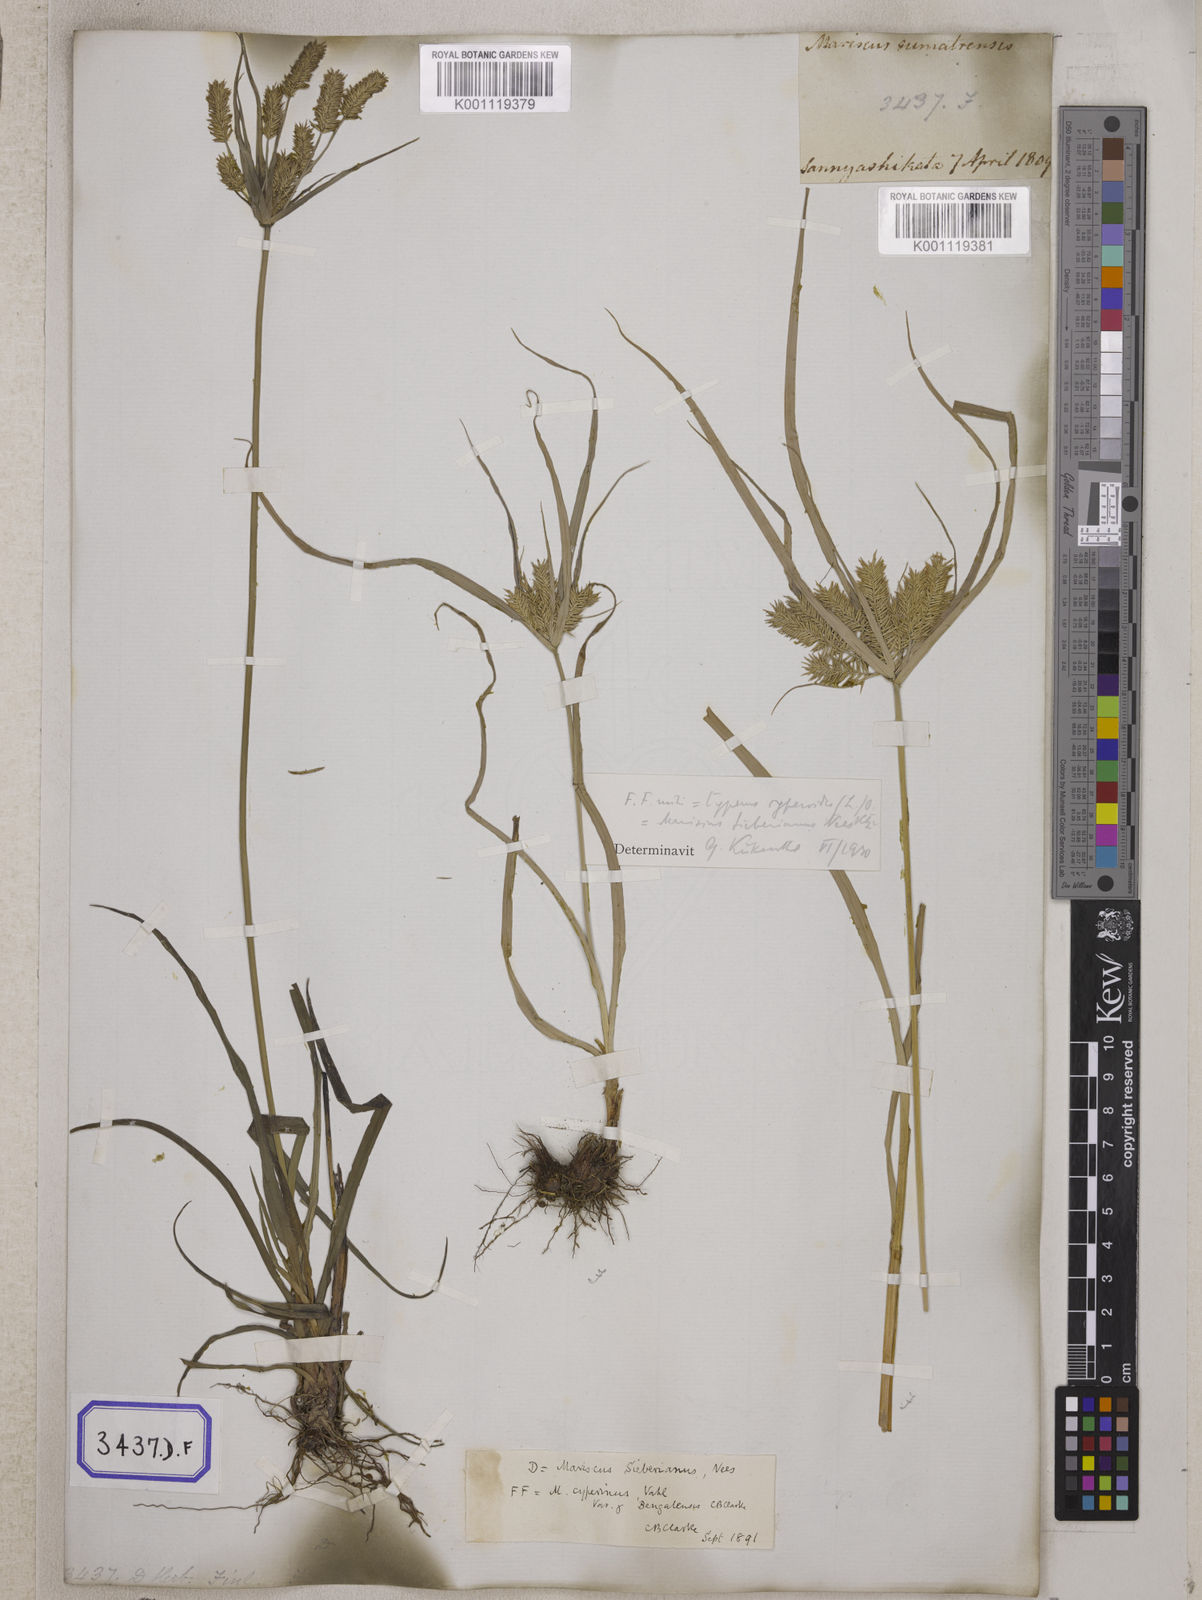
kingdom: Plantae
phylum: Tracheophyta
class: Liliopsida
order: Poales
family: Cyperaceae
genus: Mariscus
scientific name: Mariscus
